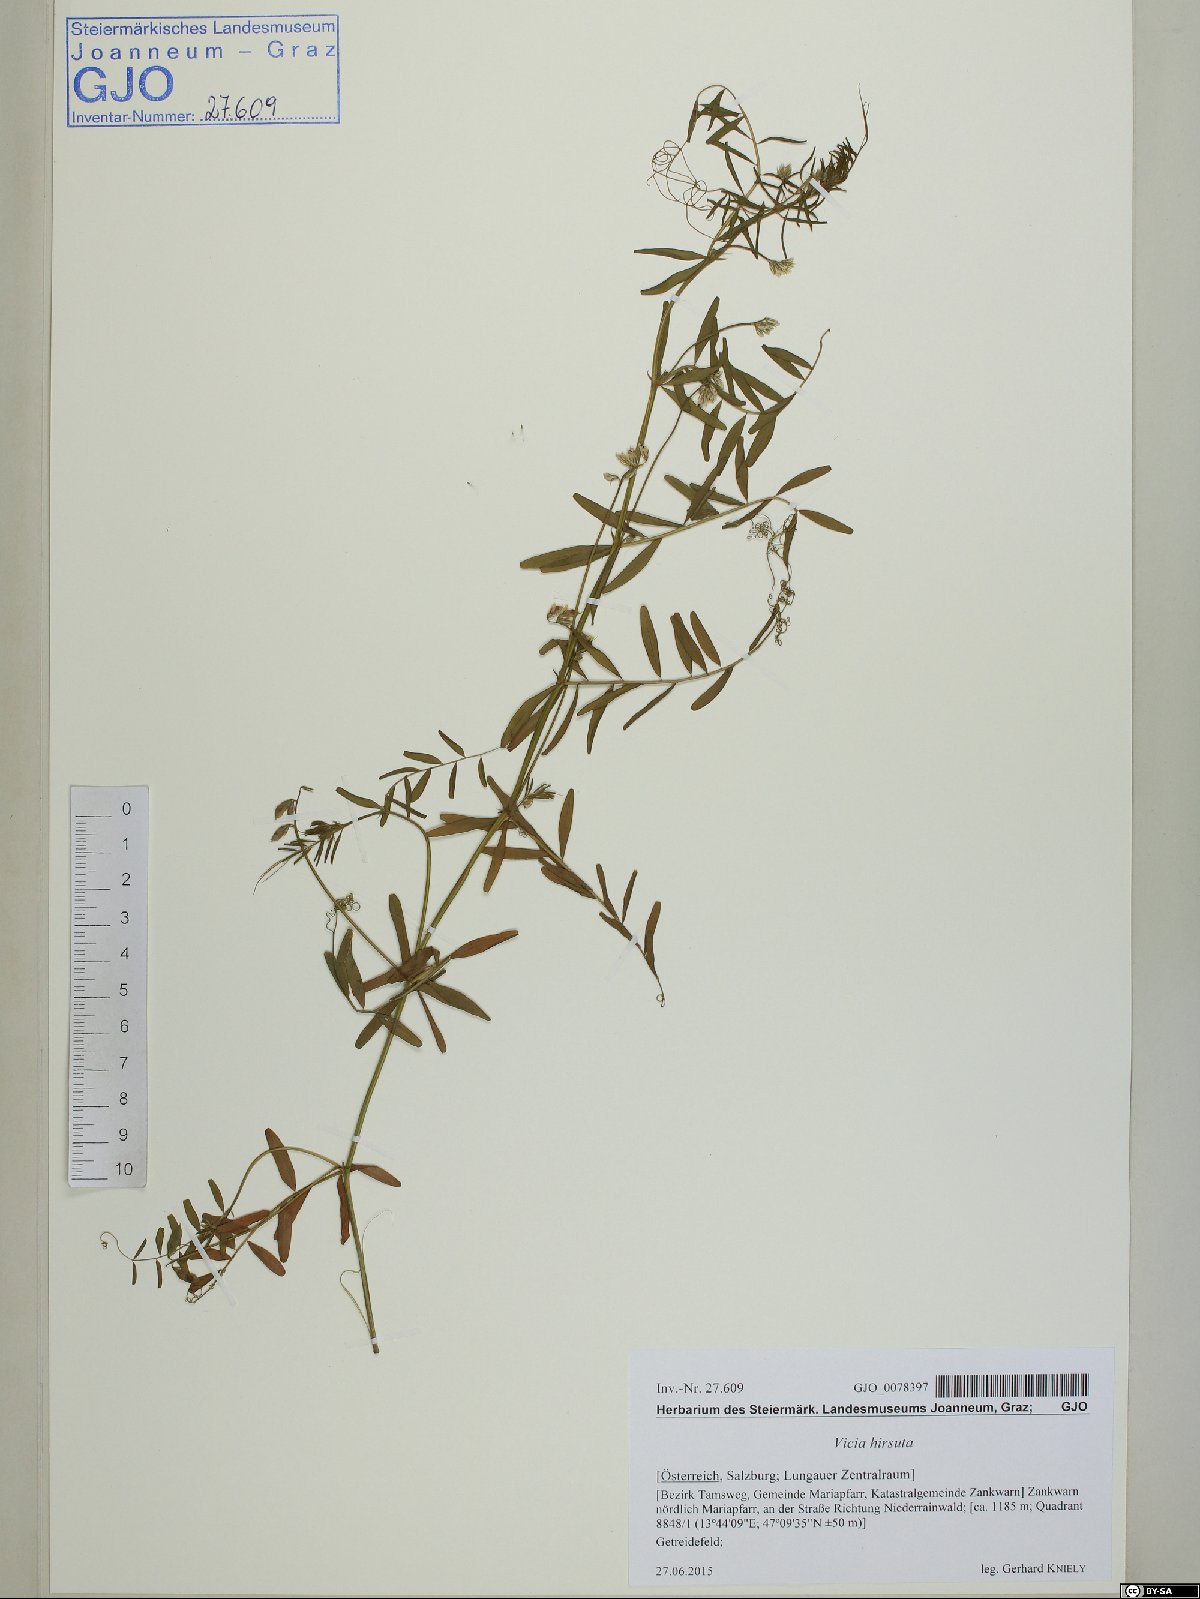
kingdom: Plantae
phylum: Tracheophyta
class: Magnoliopsida
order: Fabales
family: Fabaceae
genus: Vicia
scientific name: Vicia hirsuta
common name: Tiny vetch
